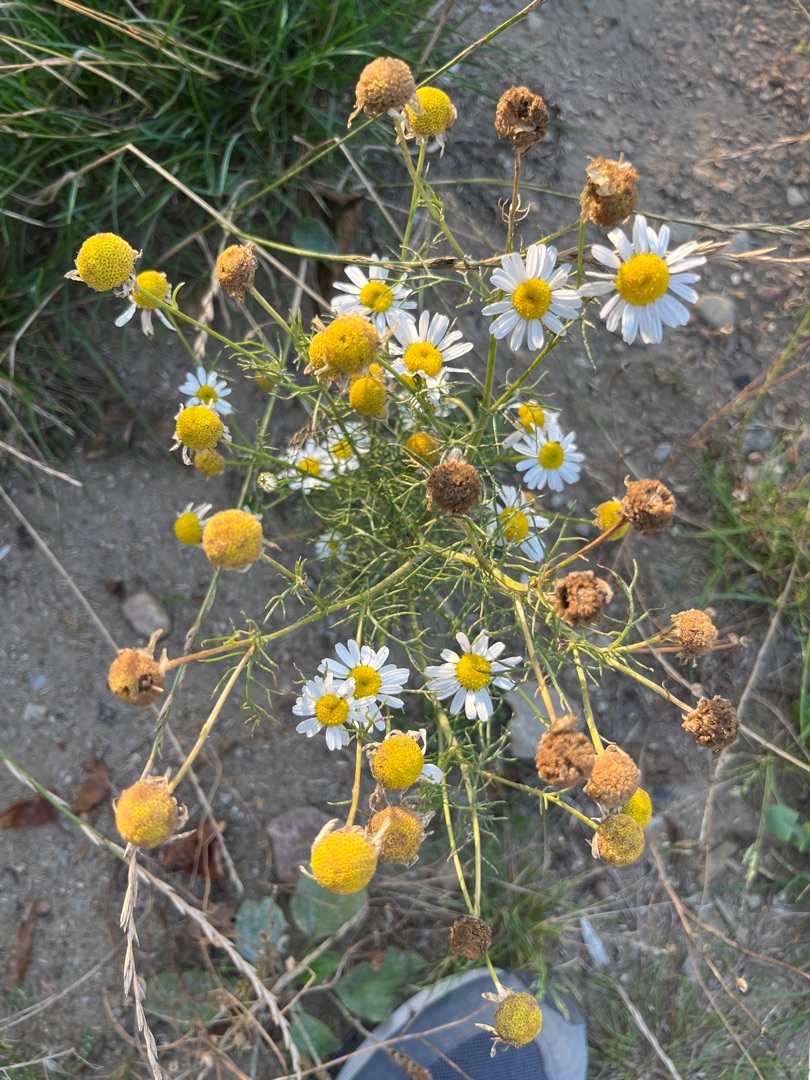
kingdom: Plantae
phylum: Tracheophyta
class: Magnoliopsida
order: Asterales
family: Asteraceae
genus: Tripleurospermum
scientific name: Tripleurospermum inodorum
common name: Lugtløs kamille
